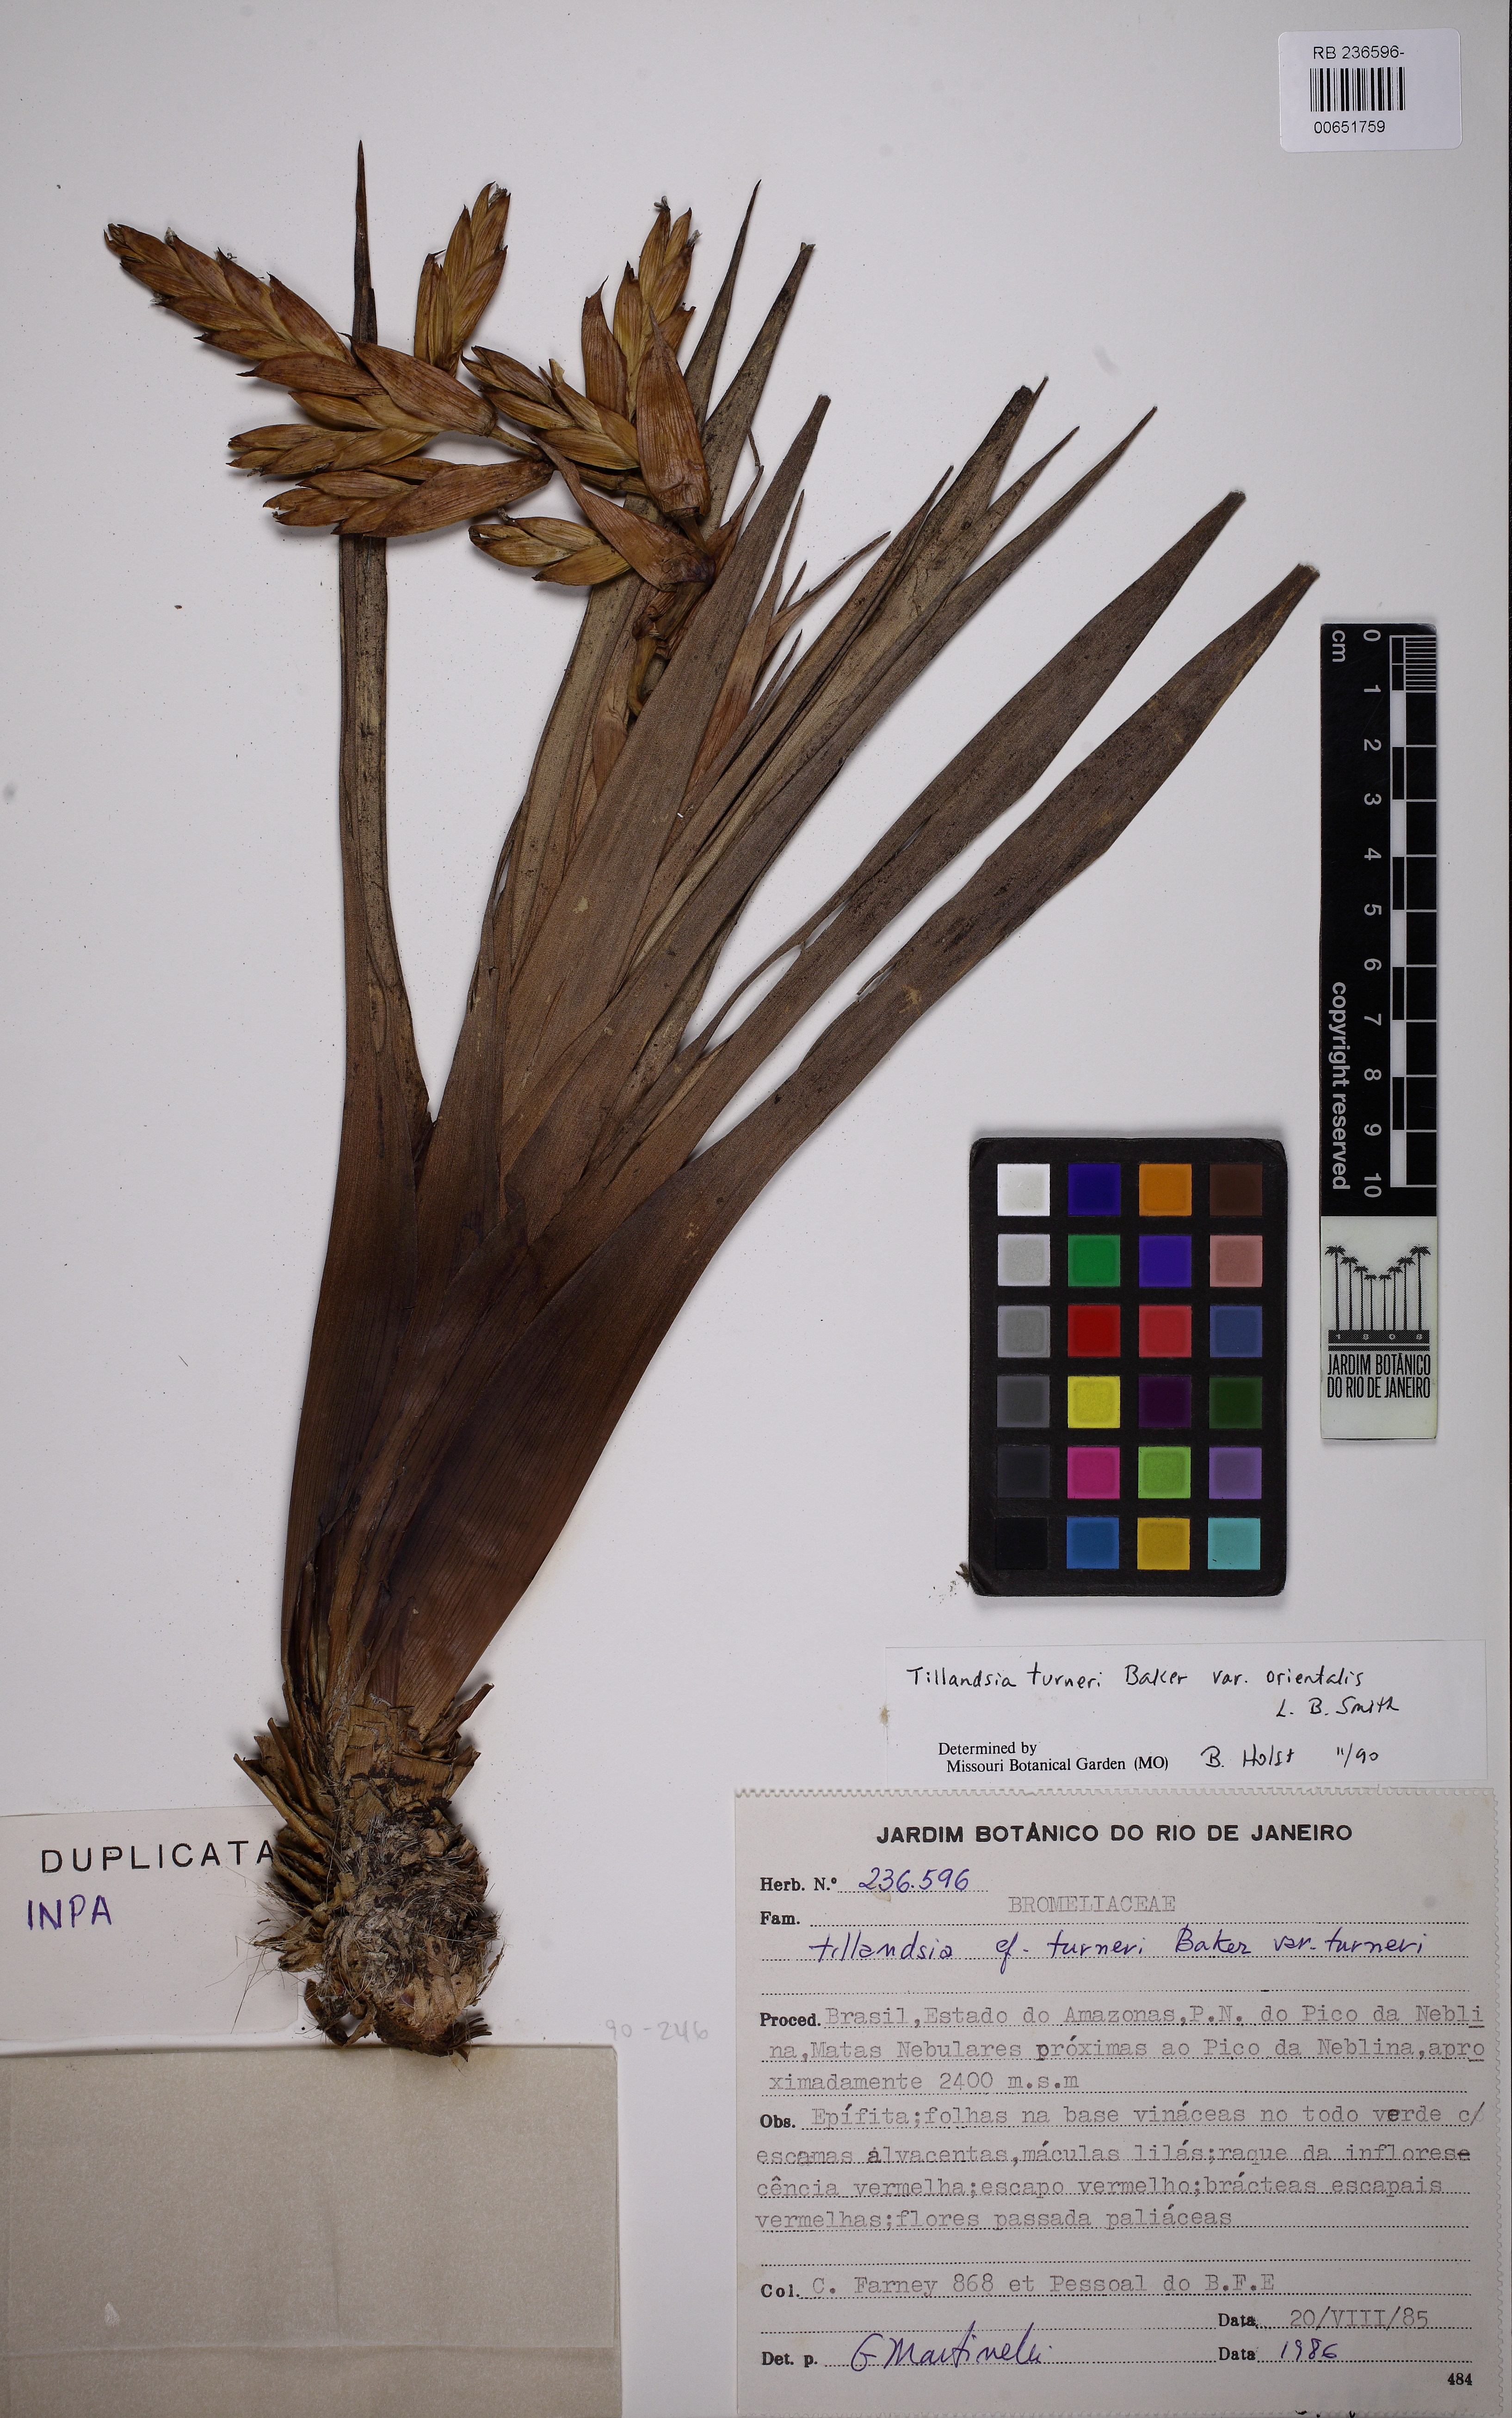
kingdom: Plantae
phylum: Tracheophyta
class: Liliopsida
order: Poales
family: Bromeliaceae
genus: Tillandsia
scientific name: Tillandsia turneri
